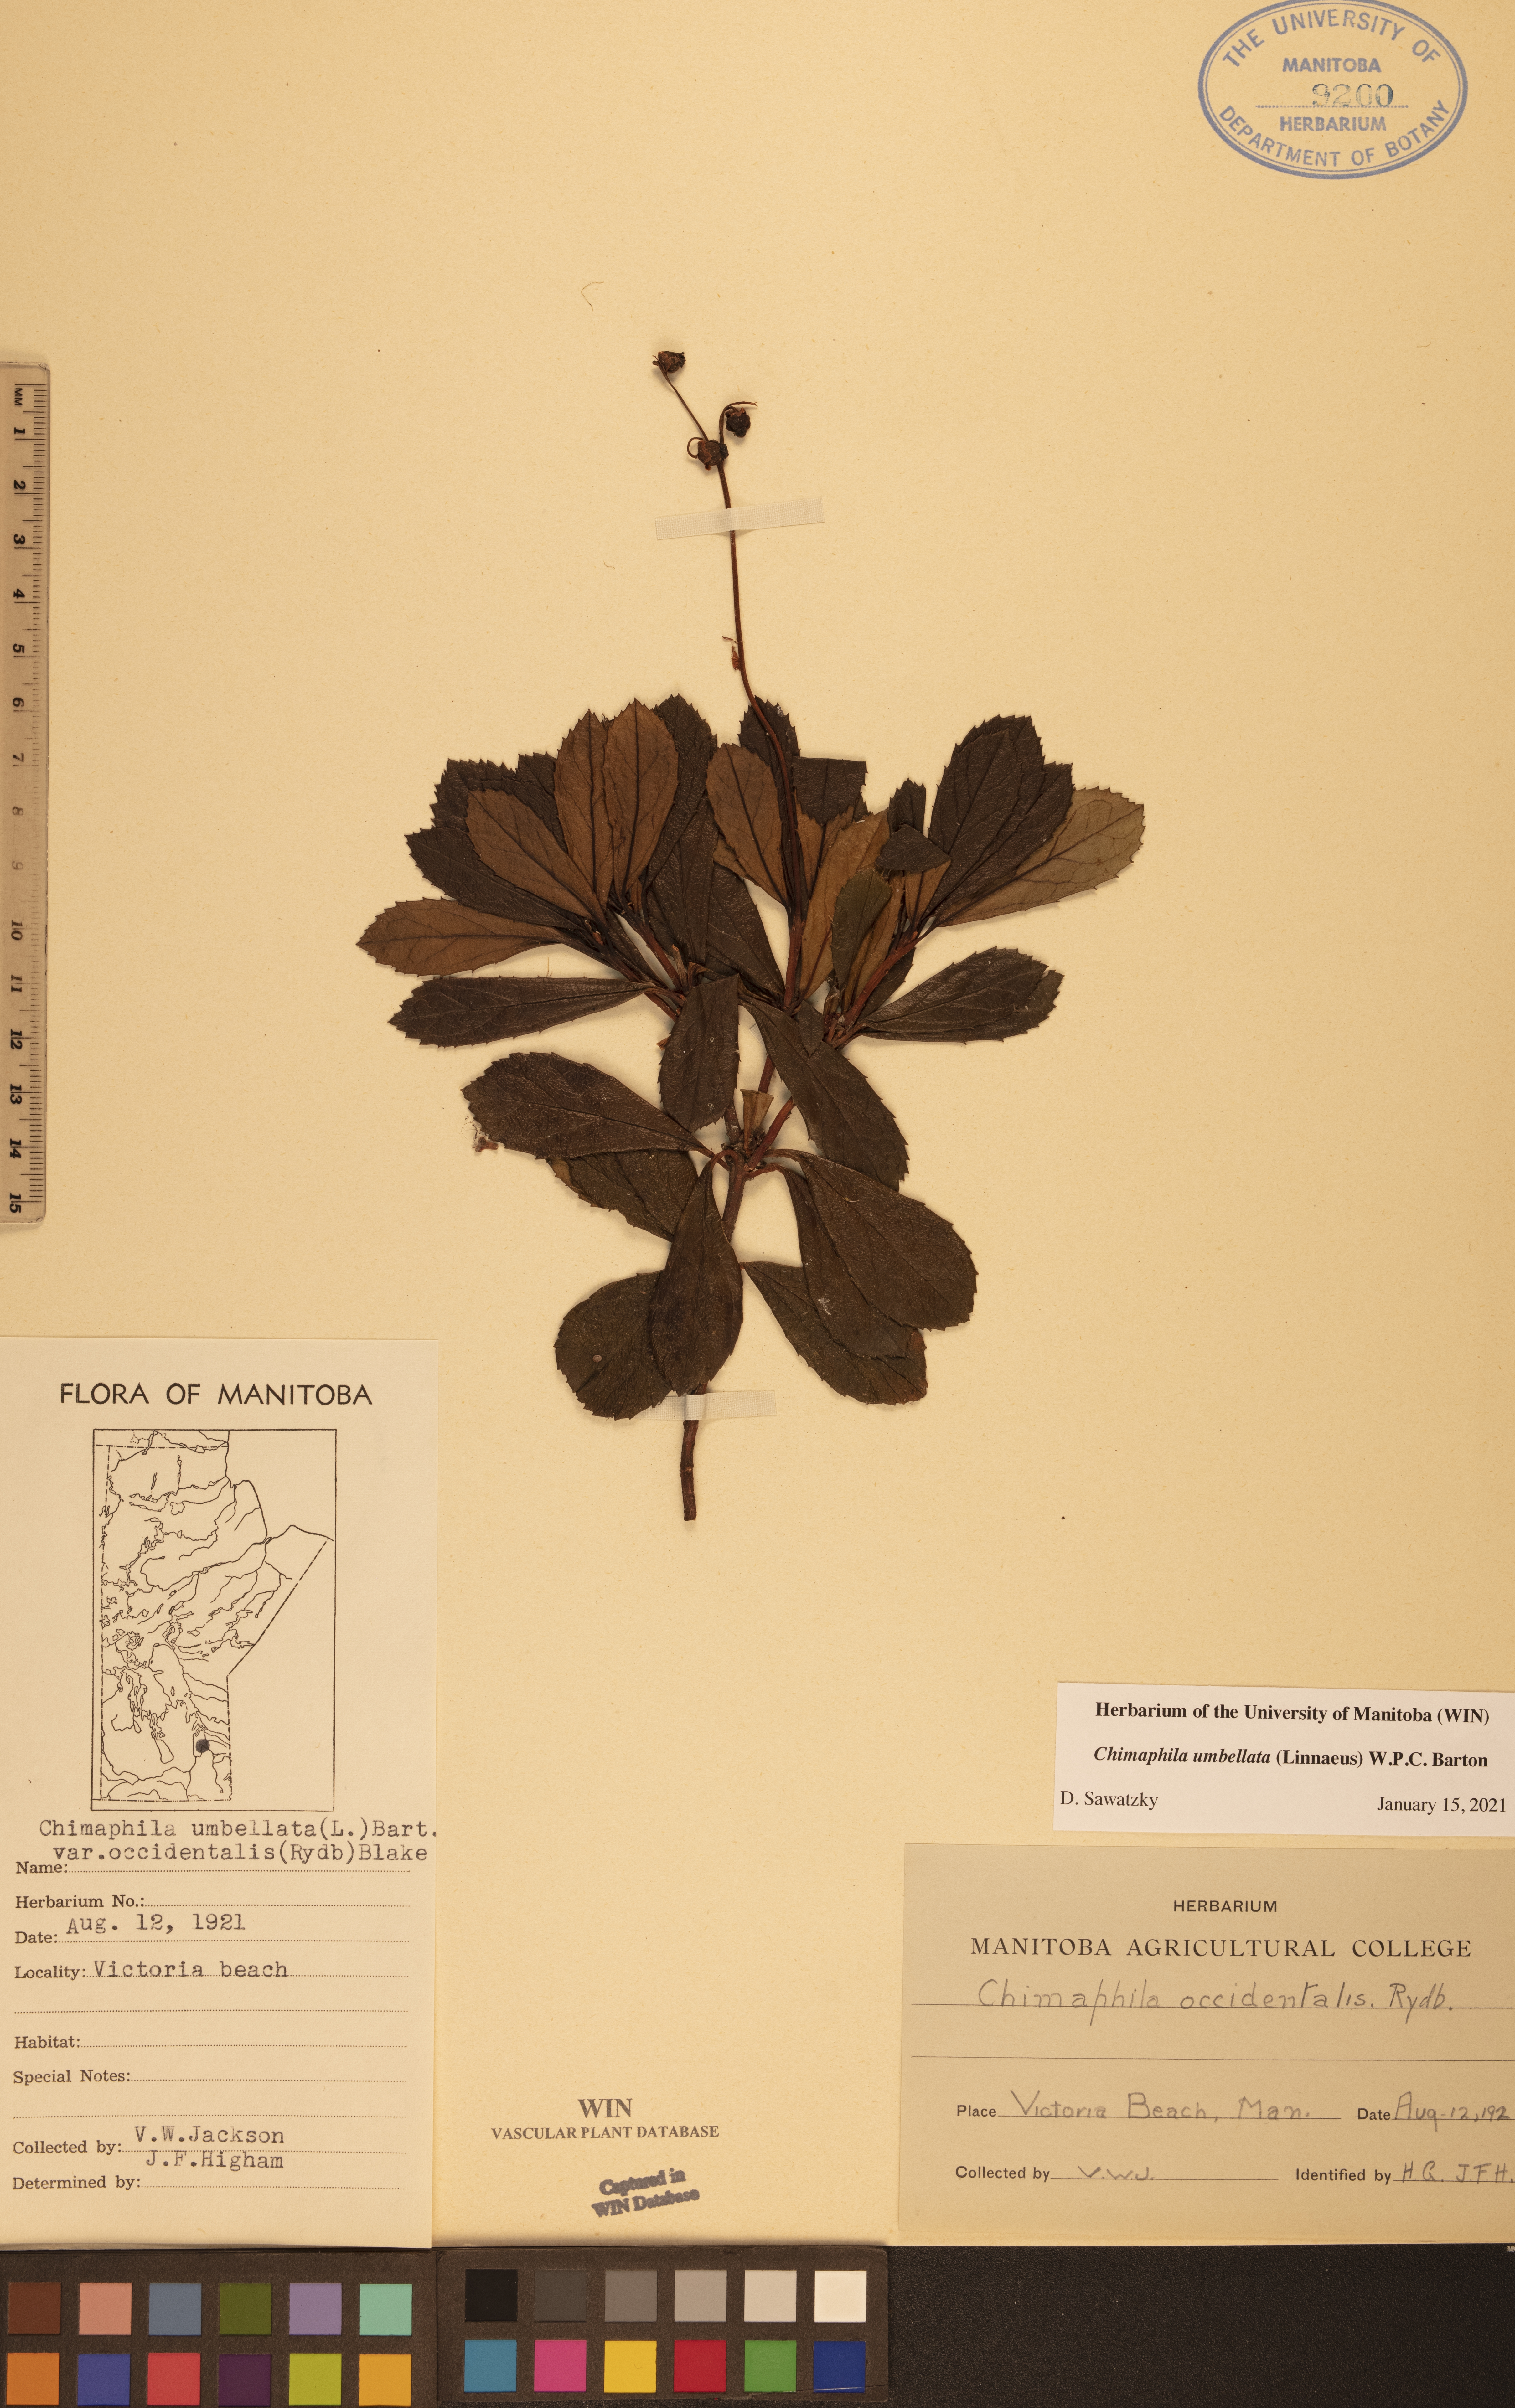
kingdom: Plantae
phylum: Tracheophyta
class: Magnoliopsida
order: Ericales
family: Ericaceae
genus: Chimaphila
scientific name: Chimaphila umbellata
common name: Pipsissewa
